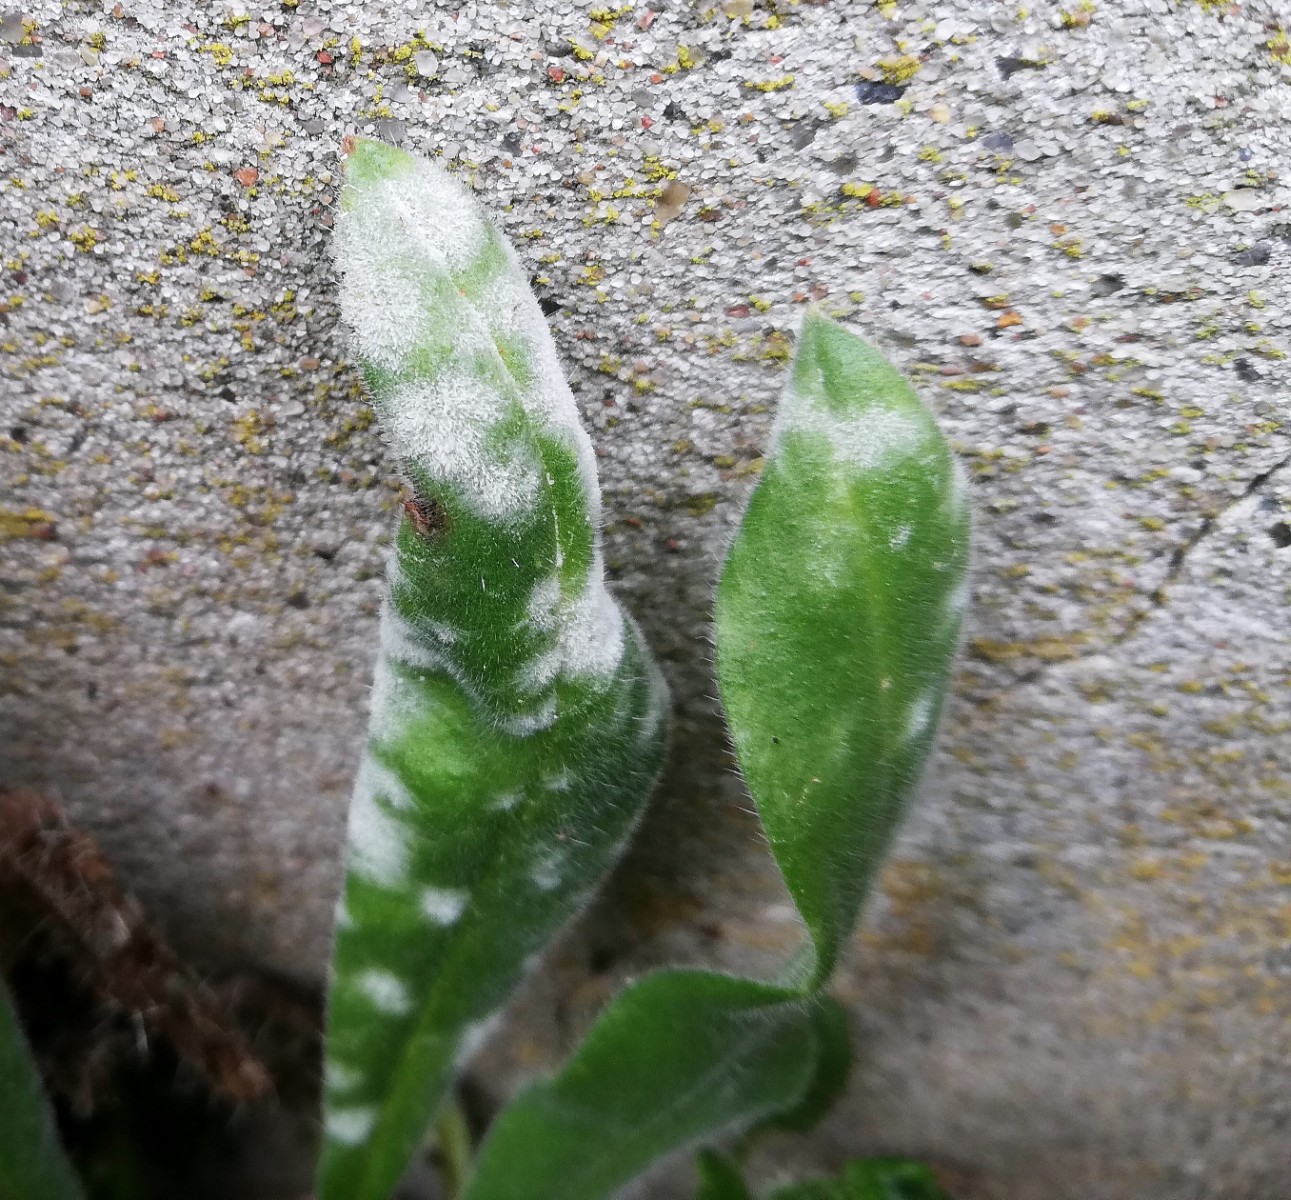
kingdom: Fungi
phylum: Ascomycota
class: Leotiomycetes
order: Helotiales
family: Erysiphaceae
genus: Golovinomyces
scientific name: Golovinomyces asperifolii
